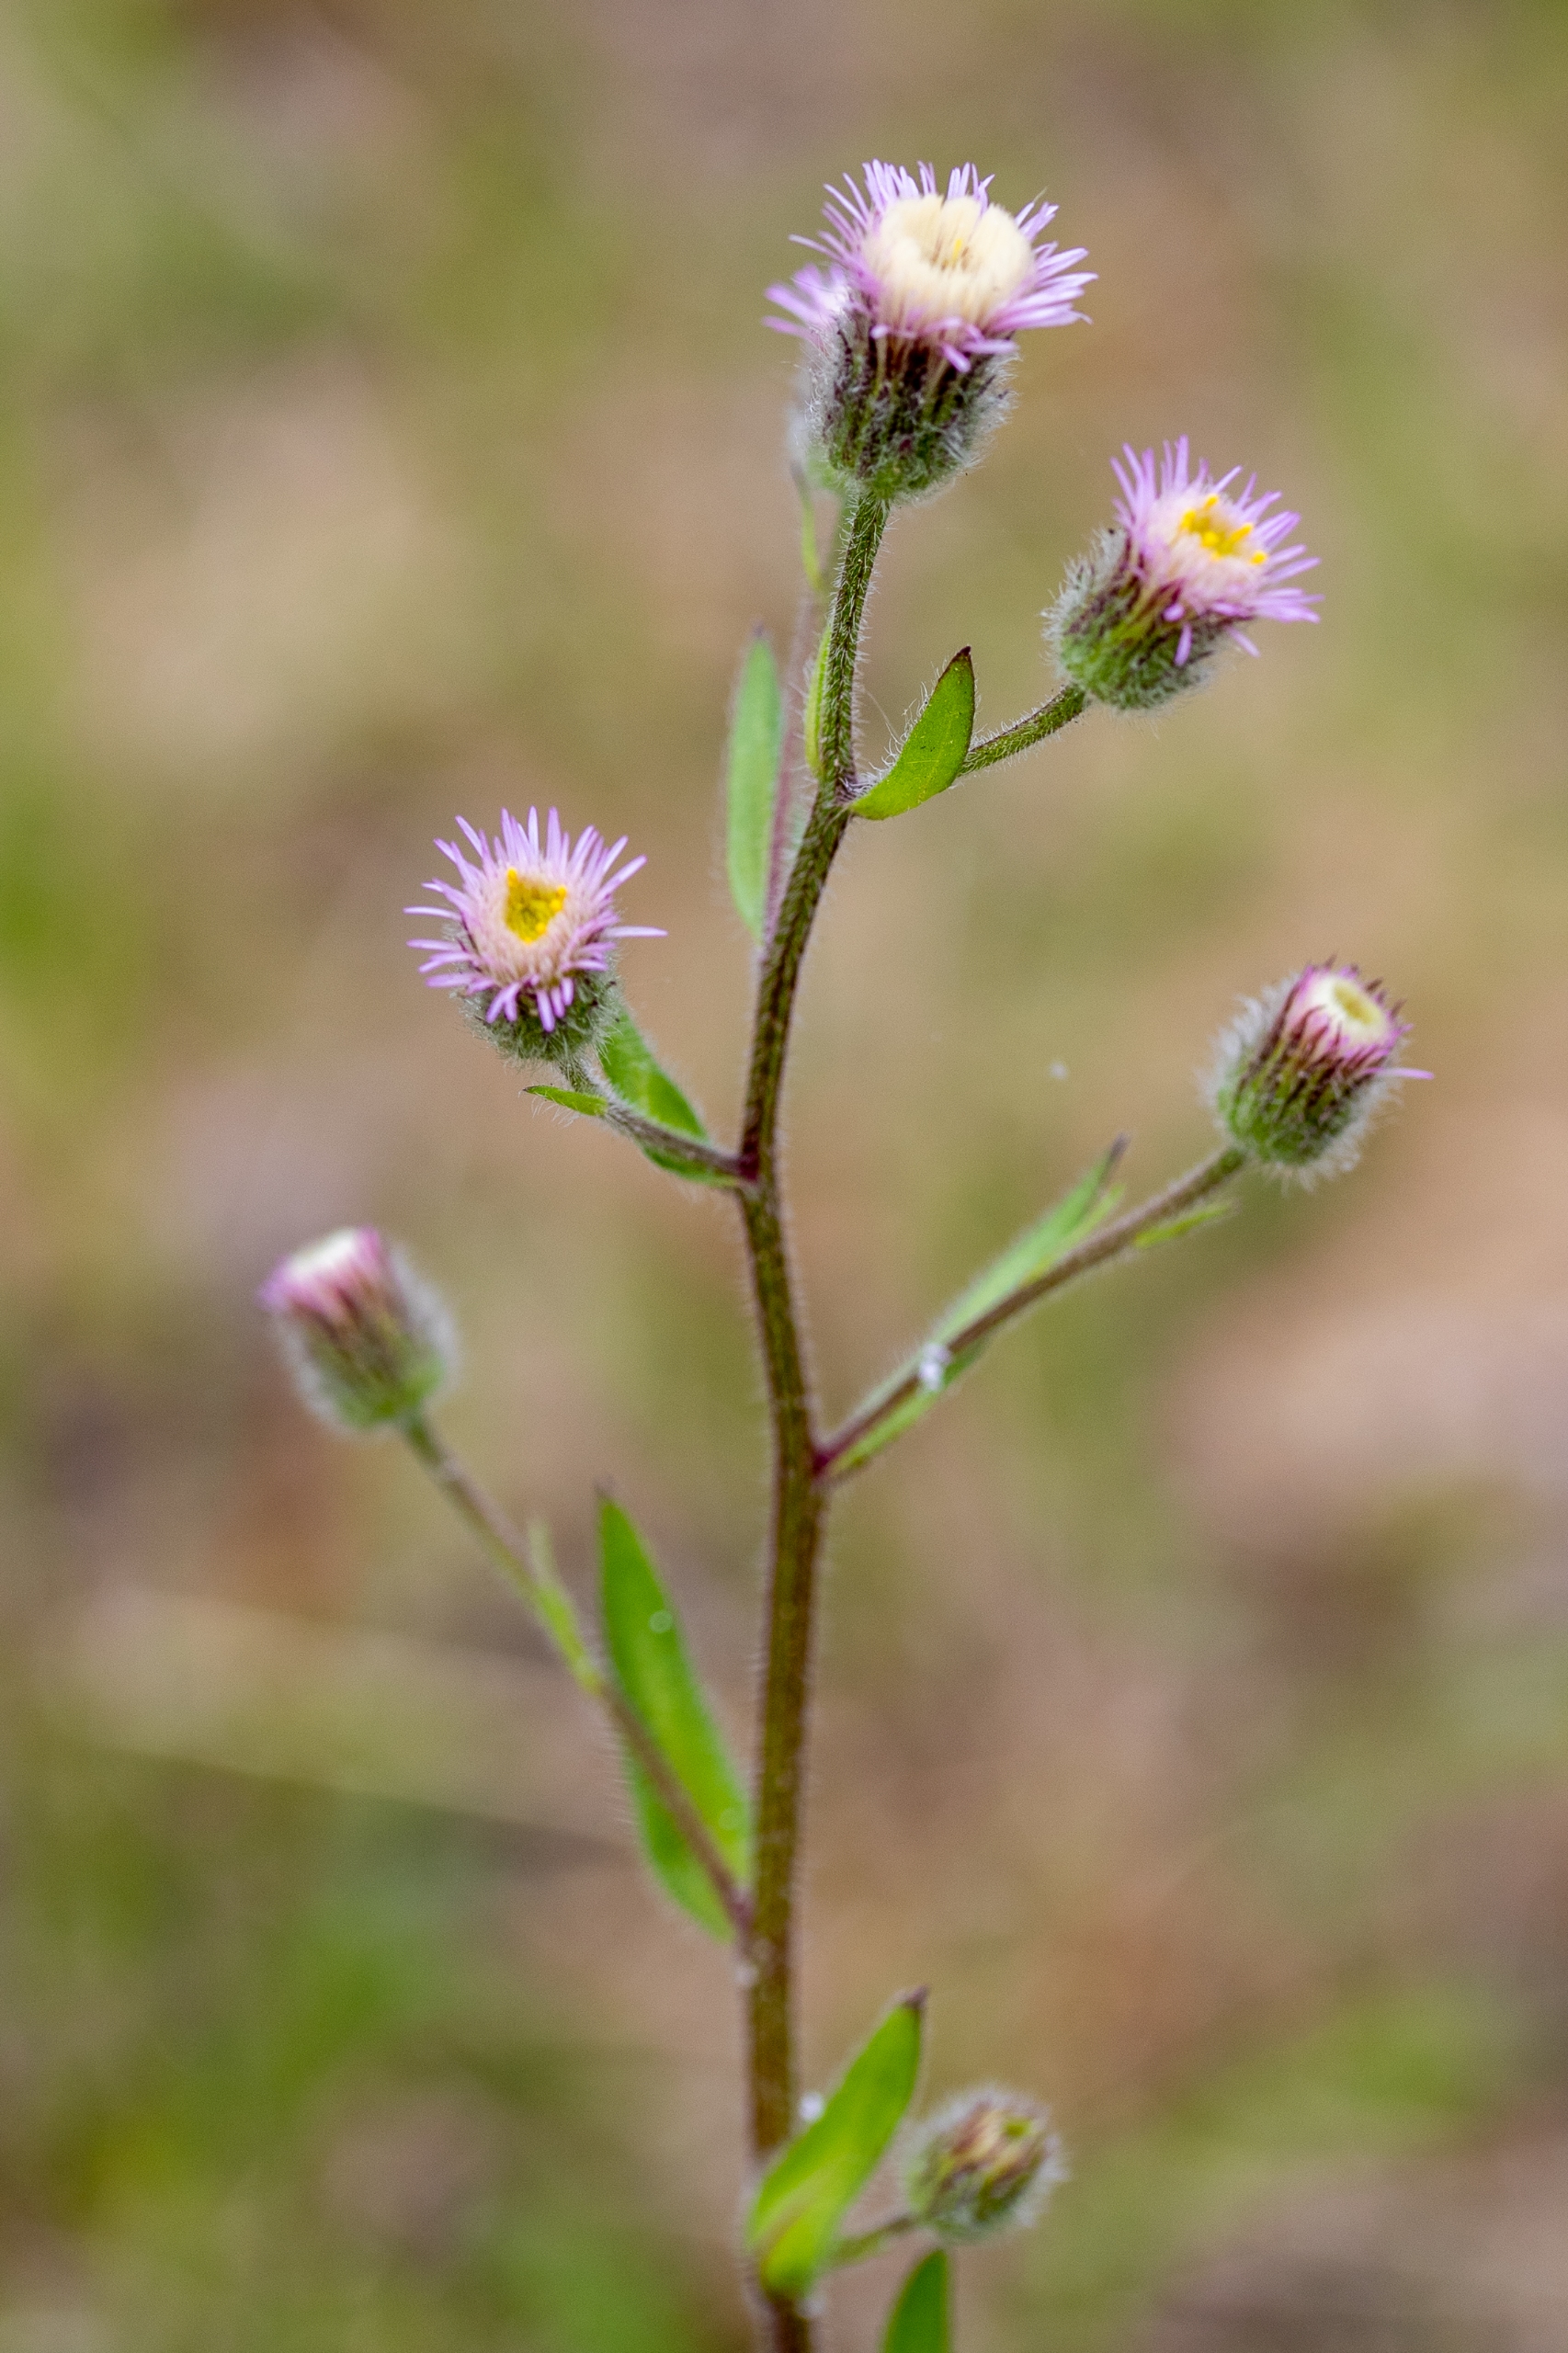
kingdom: Plantae
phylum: Tracheophyta
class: Magnoliopsida
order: Asterales
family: Asteraceae
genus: Erigeron
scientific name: Erigeron acris
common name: Bitter bakkestjerne
